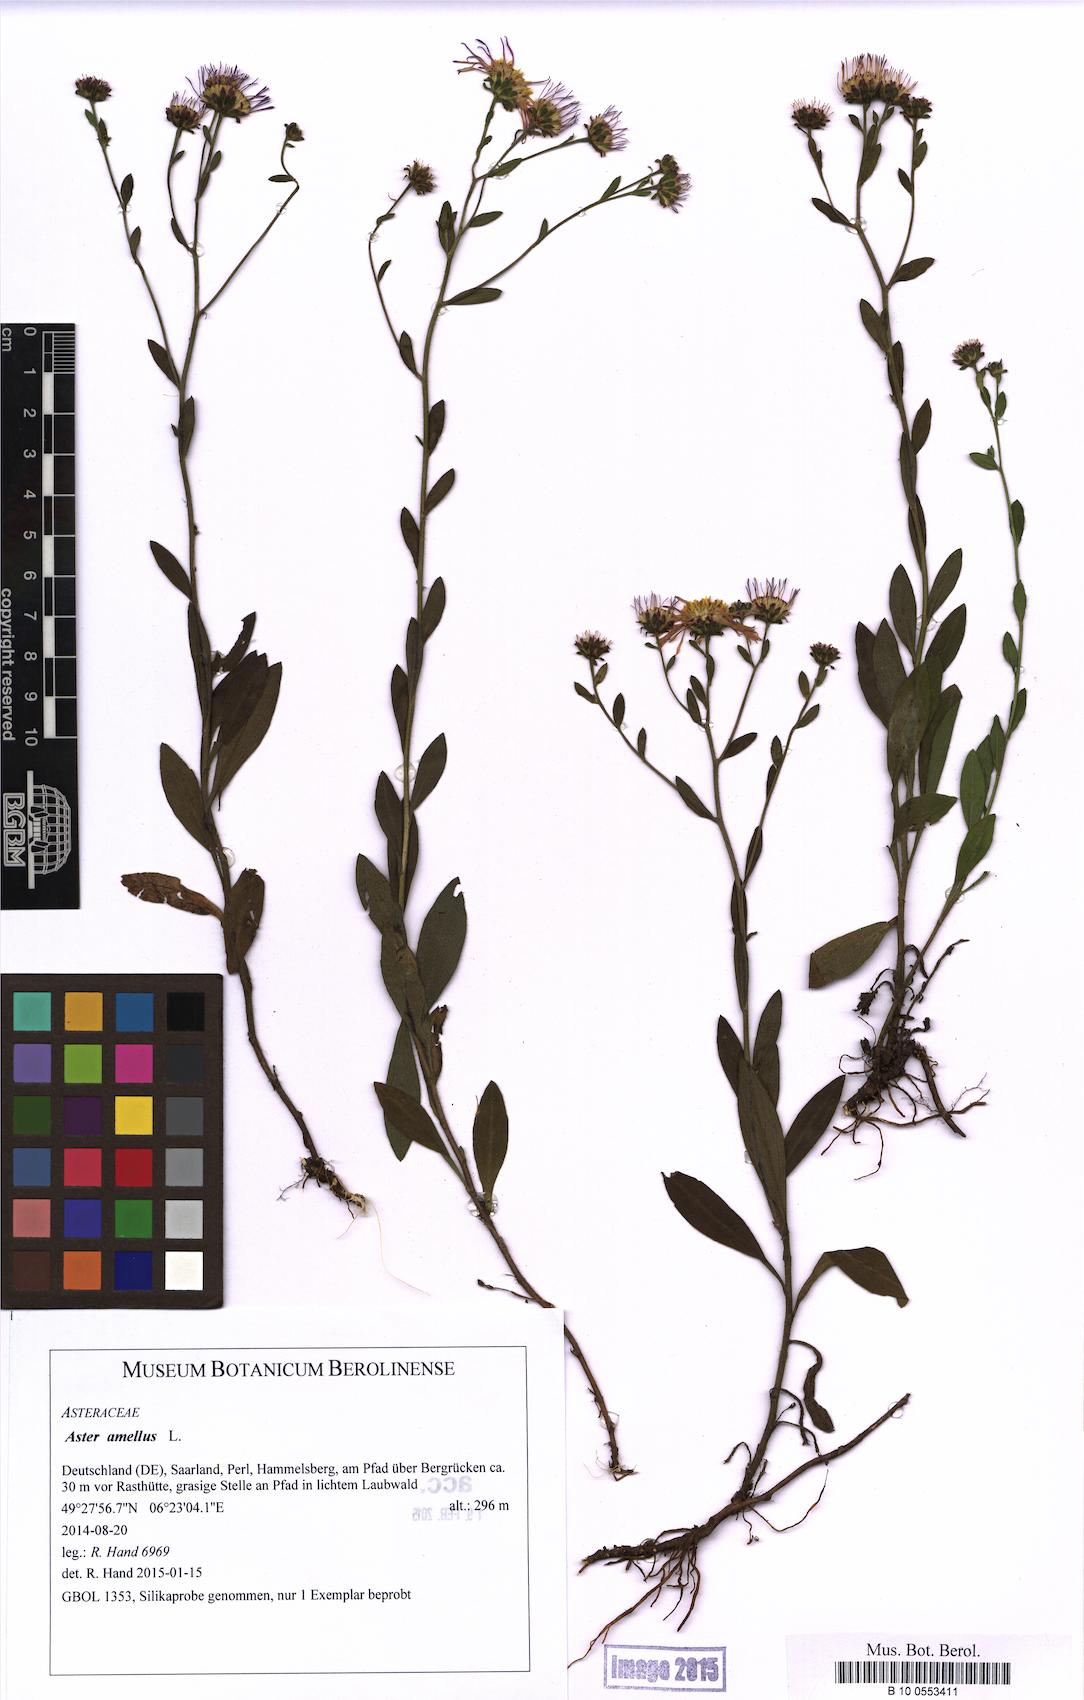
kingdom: Plantae
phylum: Tracheophyta
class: Magnoliopsida
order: Asterales
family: Asteraceae
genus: Aster
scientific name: Aster amellus
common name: European michaelmas daisy
